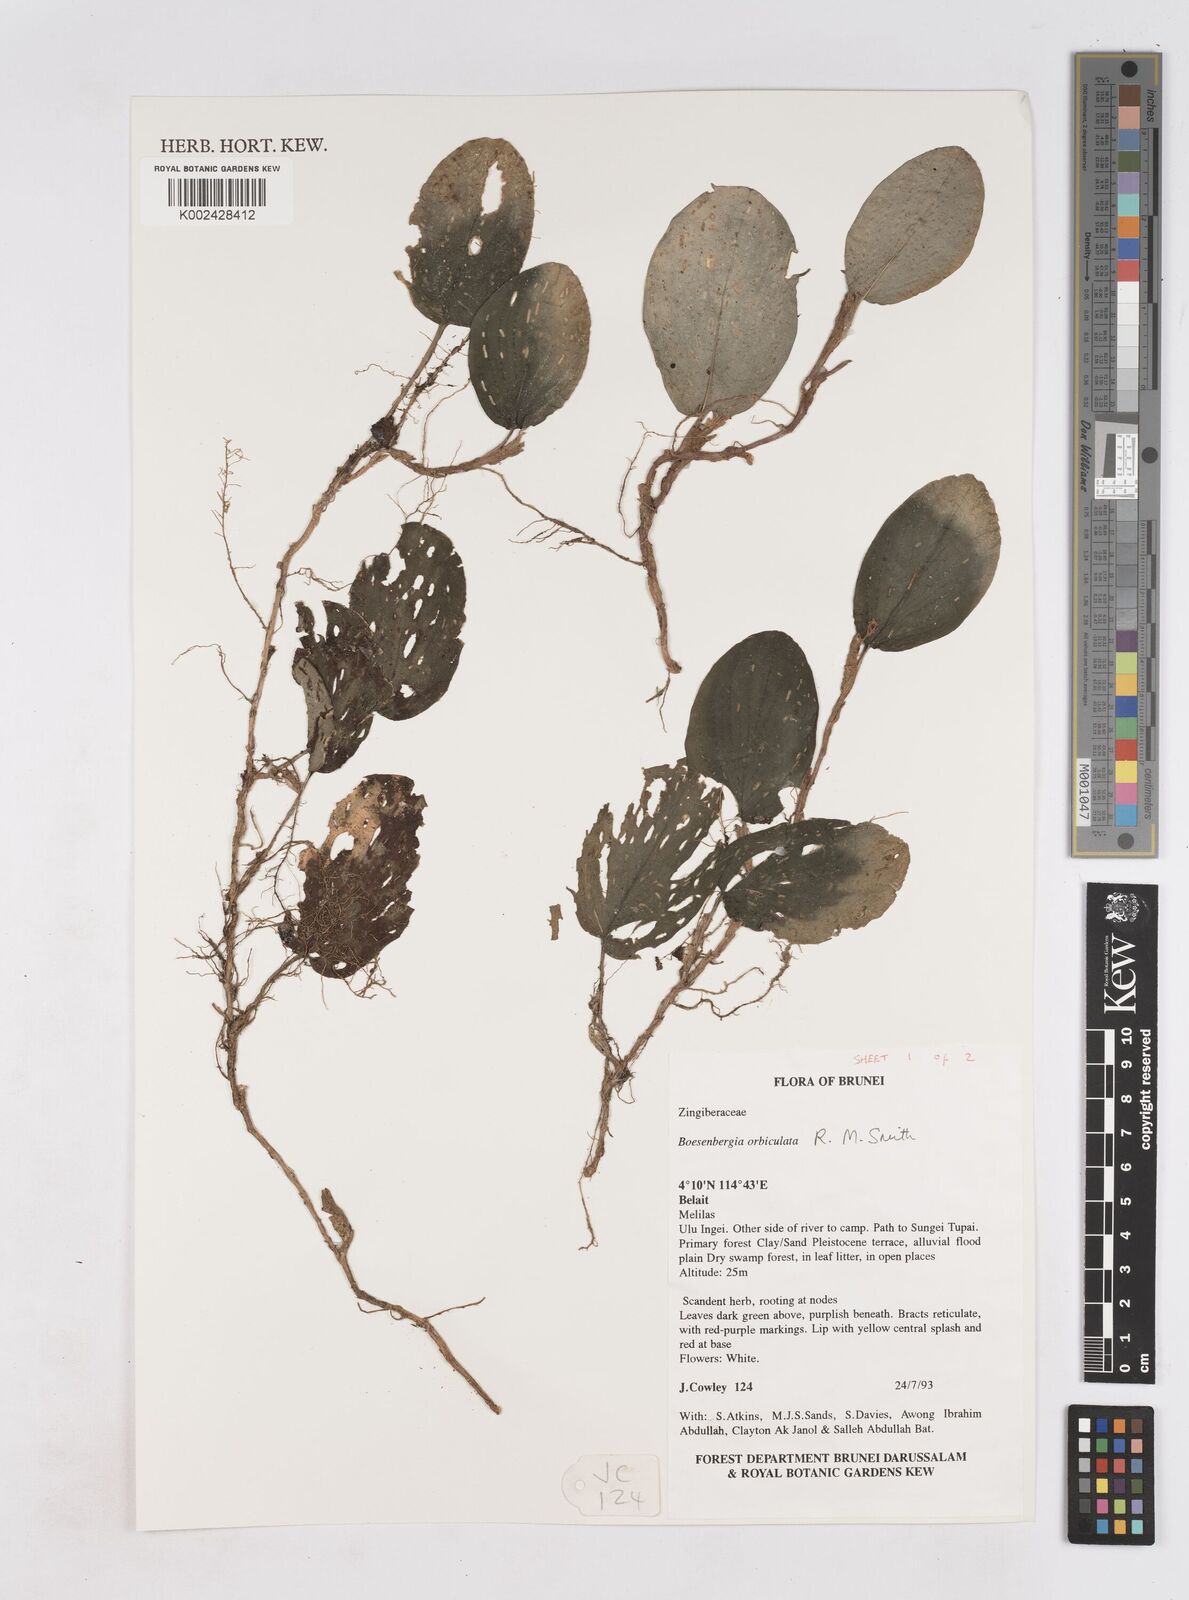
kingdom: Plantae
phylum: Tracheophyta
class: Liliopsida
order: Zingiberales
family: Zingiberaceae
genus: Boesenbergia
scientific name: Boesenbergia orbiculata
